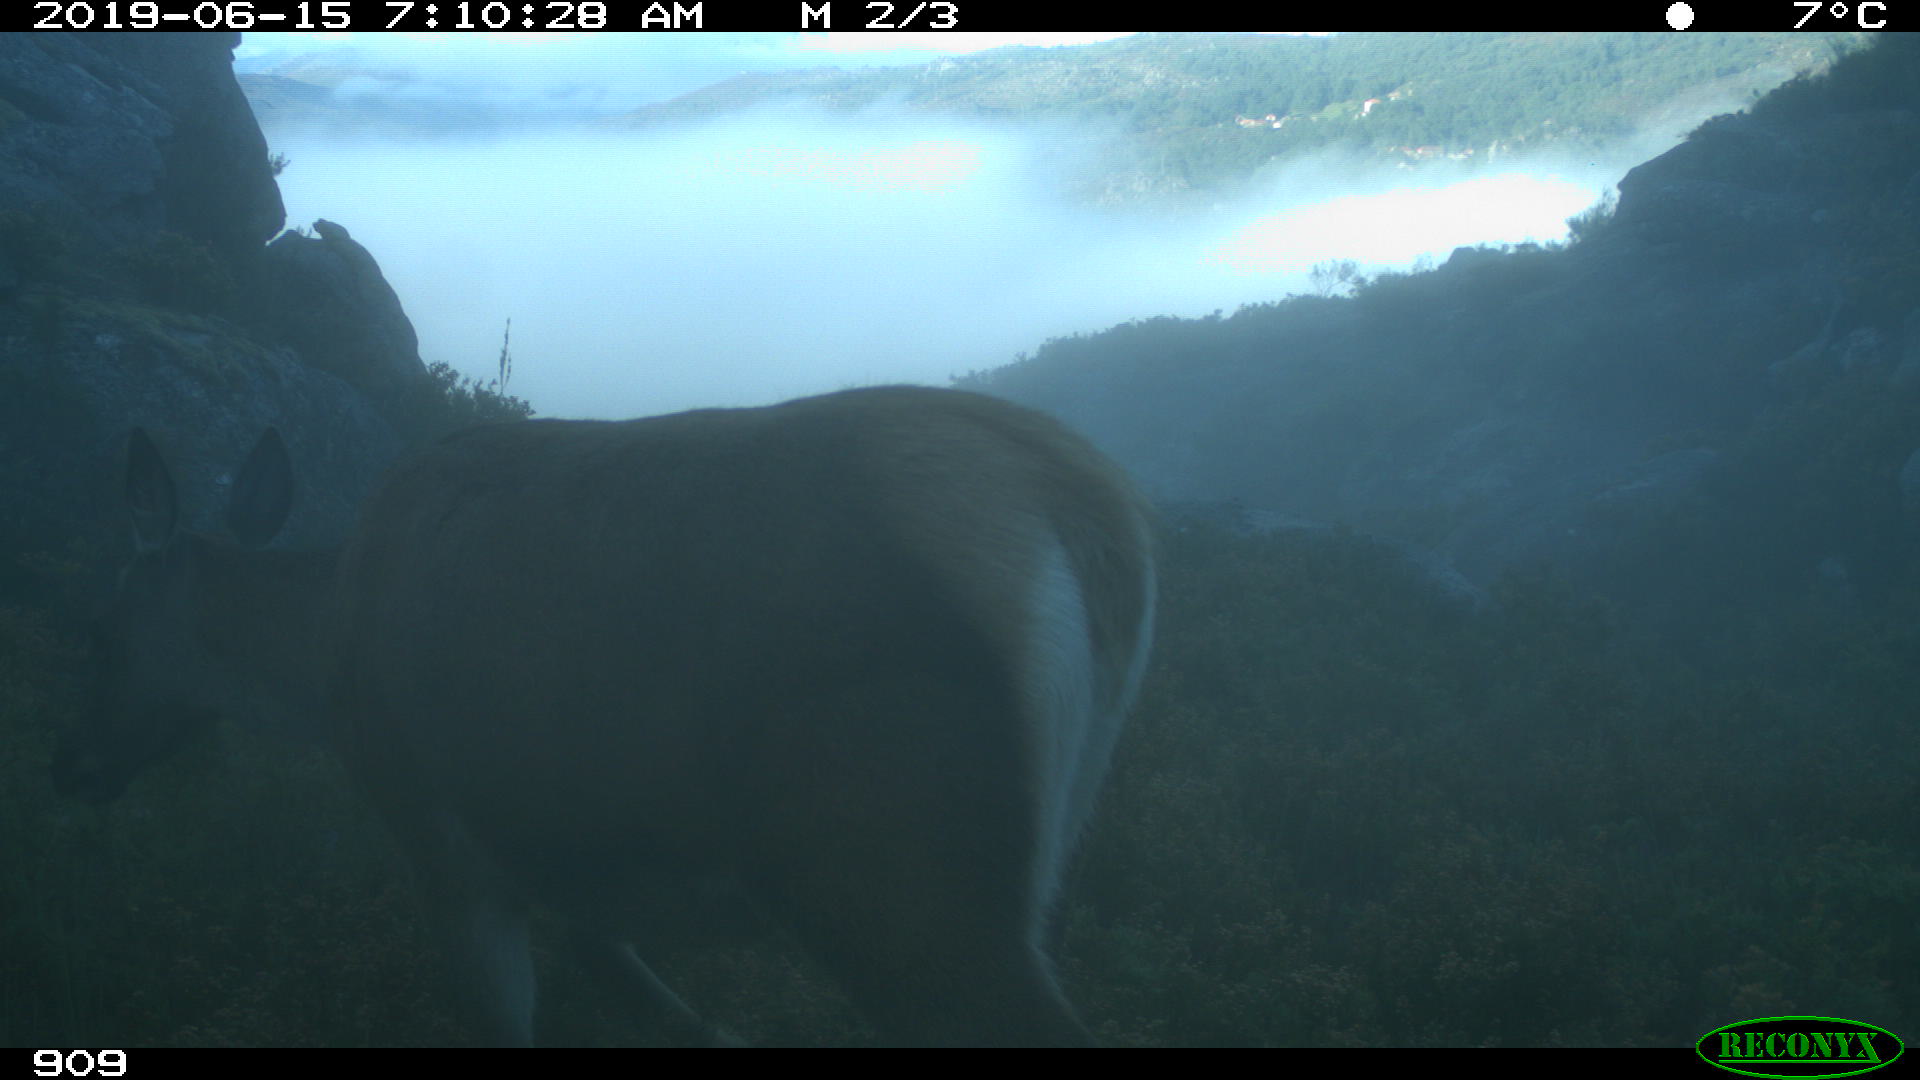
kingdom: Animalia
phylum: Chordata
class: Mammalia
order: Artiodactyla
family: Cervidae
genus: Cervus
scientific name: Cervus elaphus
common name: Red deer
